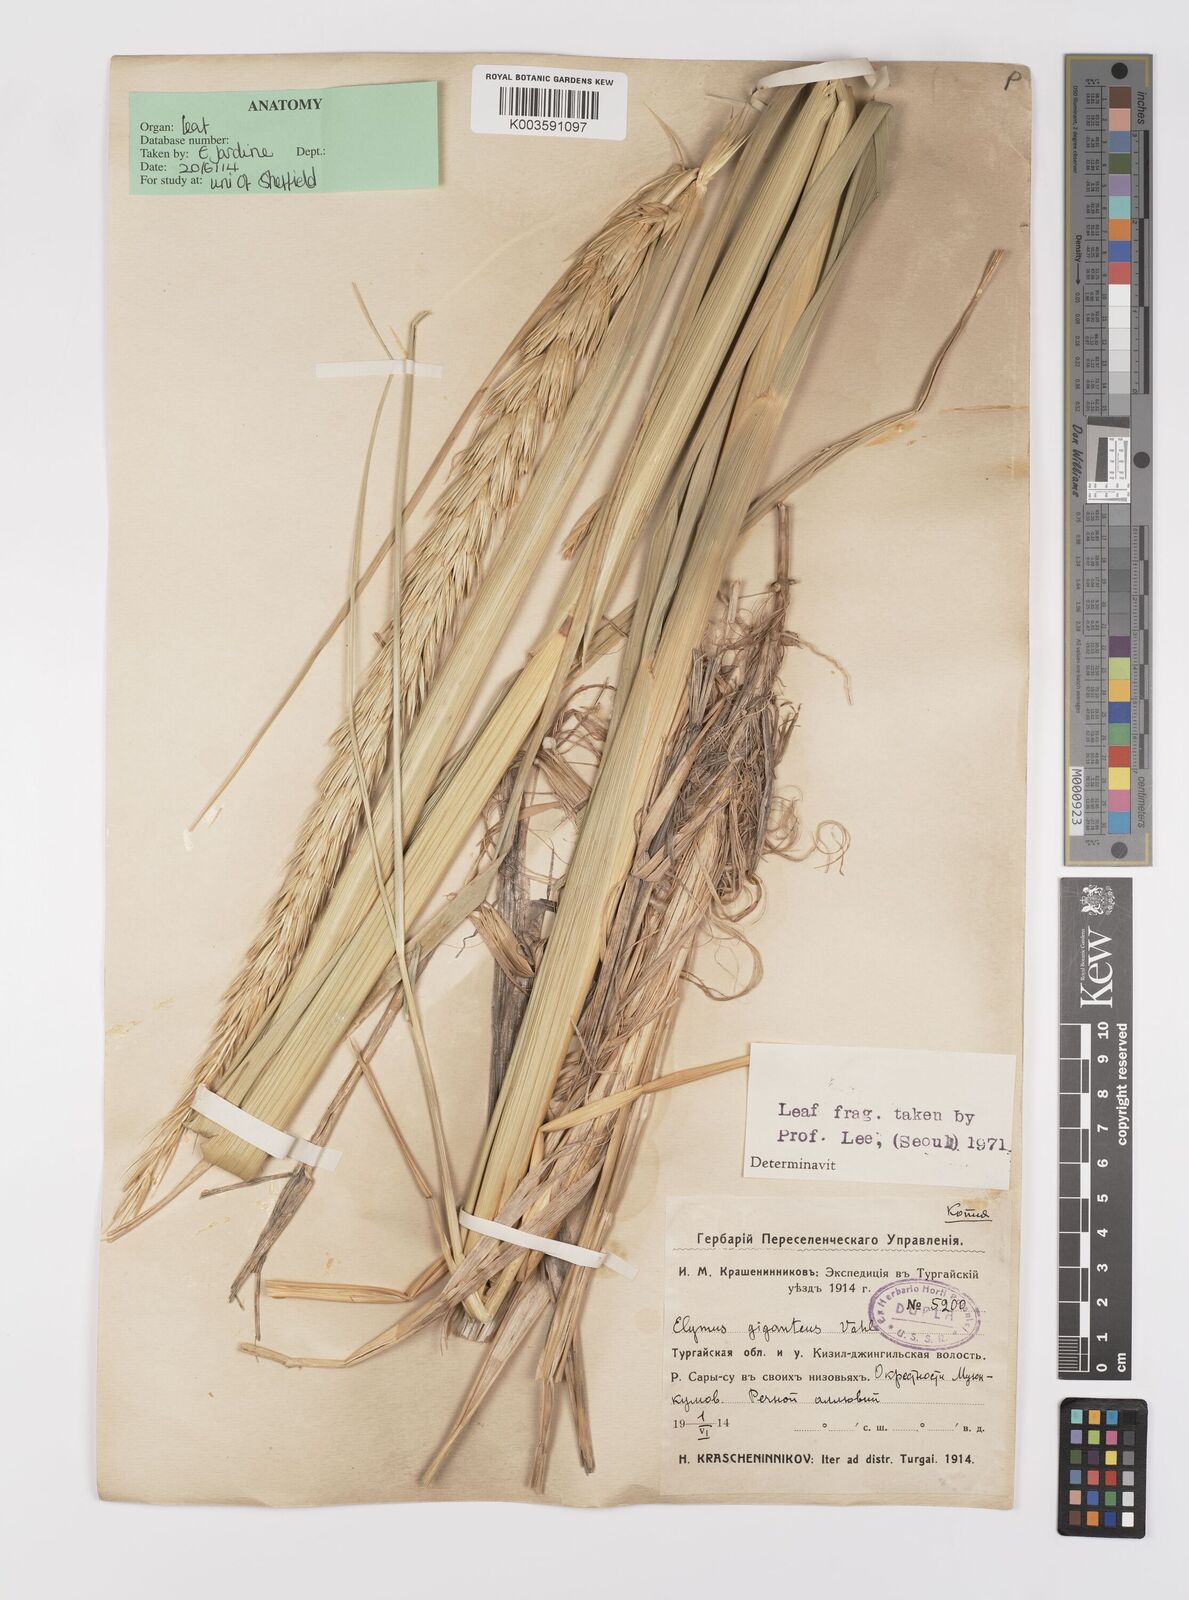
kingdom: Plantae
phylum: Tracheophyta
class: Liliopsida
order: Poales
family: Poaceae
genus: Leymus
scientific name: Leymus racemosus
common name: Mammoth wildrye
